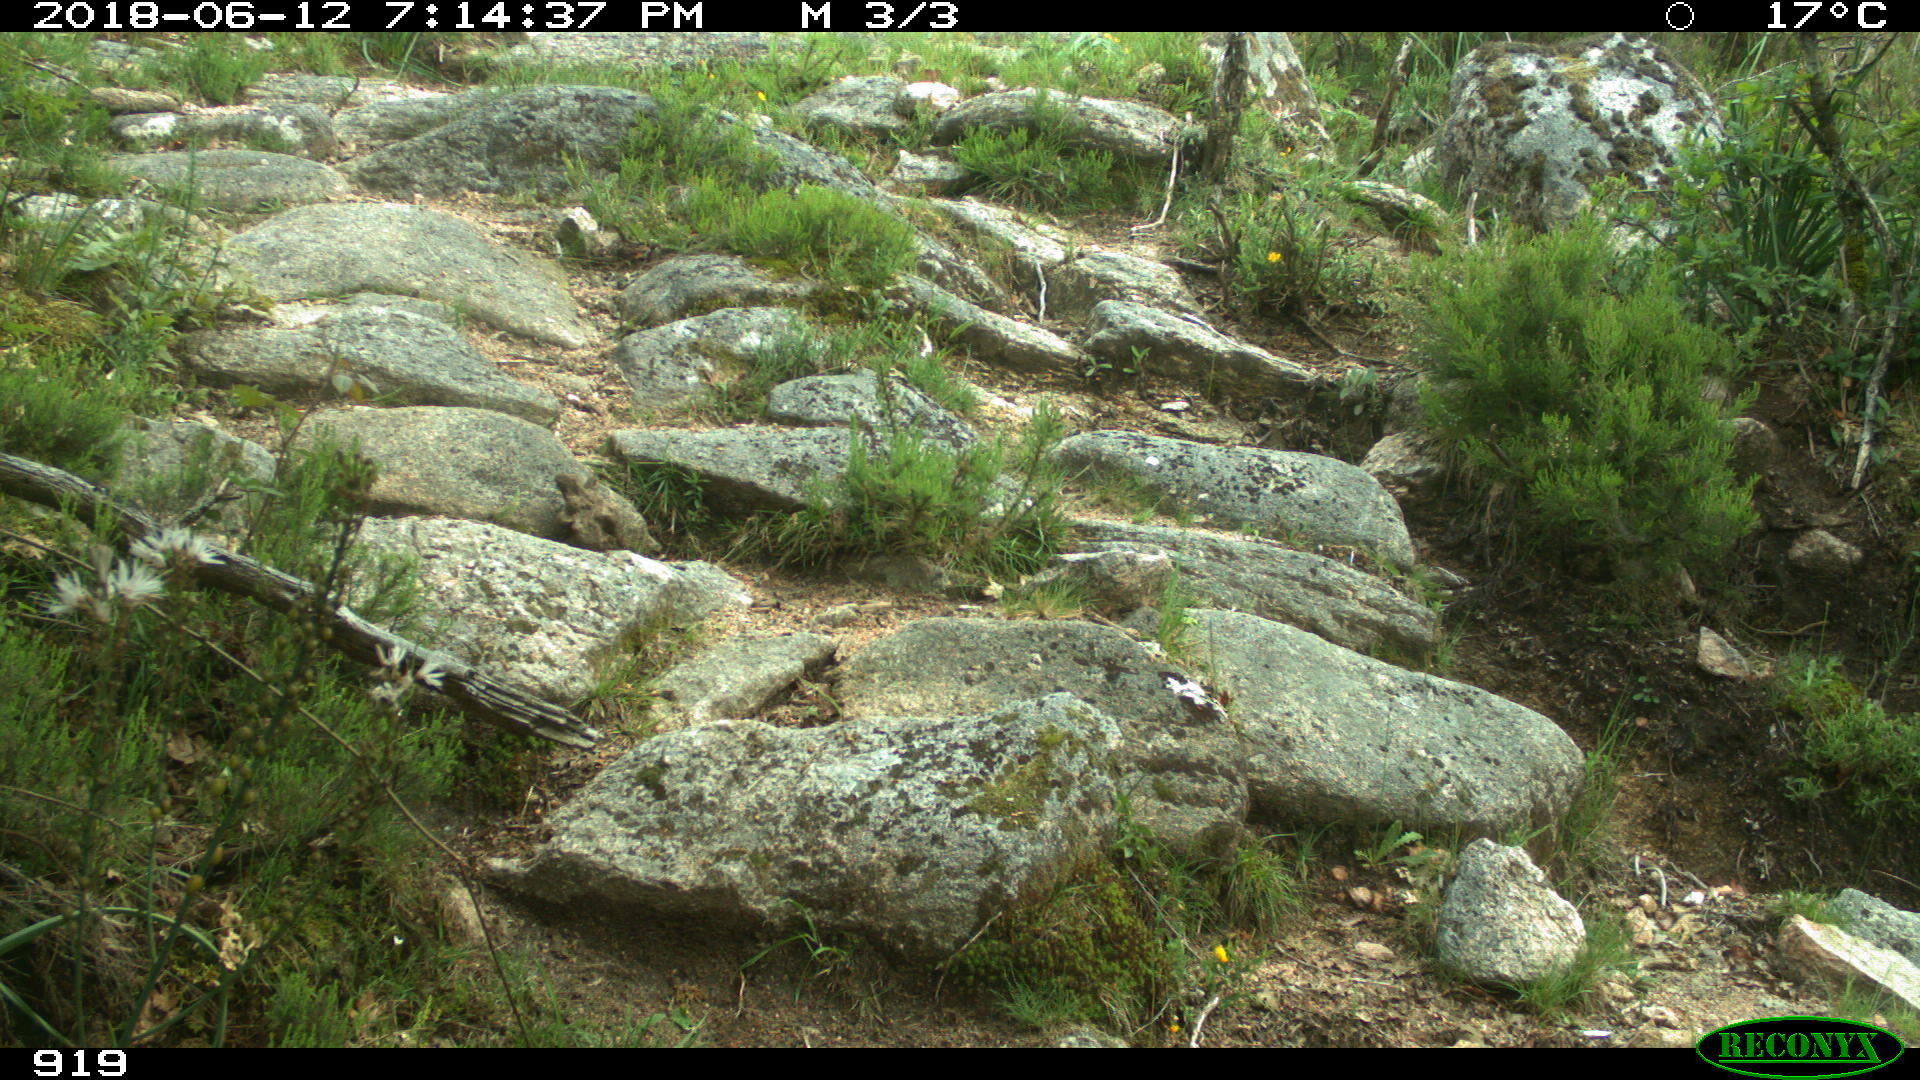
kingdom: Animalia
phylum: Chordata
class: Mammalia
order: Artiodactyla
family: Bovidae
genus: Bos
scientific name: Bos taurus
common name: Domesticated cattle
